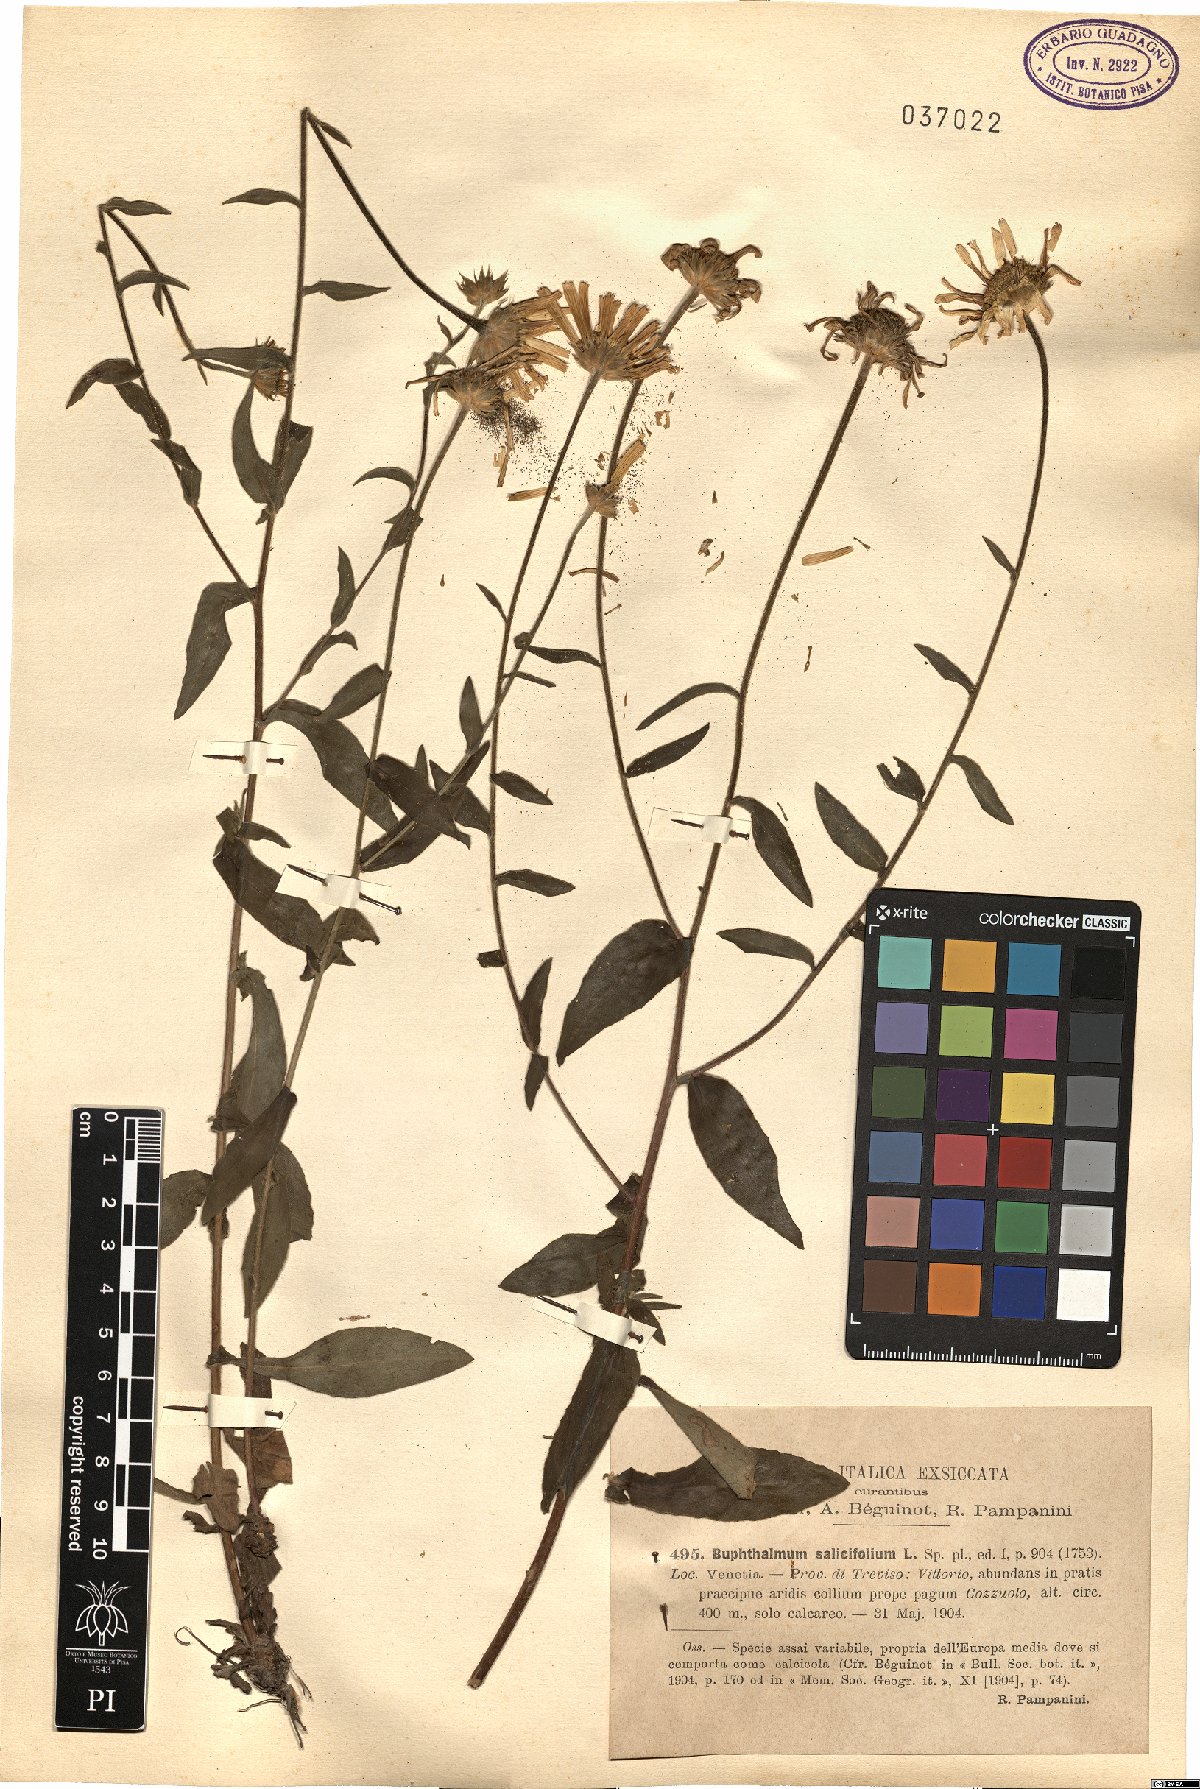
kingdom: Plantae
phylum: Tracheophyta
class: Magnoliopsida
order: Asterales
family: Asteraceae
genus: Buphthalmum
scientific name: Buphthalmum salicifolium
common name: Willow-leaved yellow-oxeye
